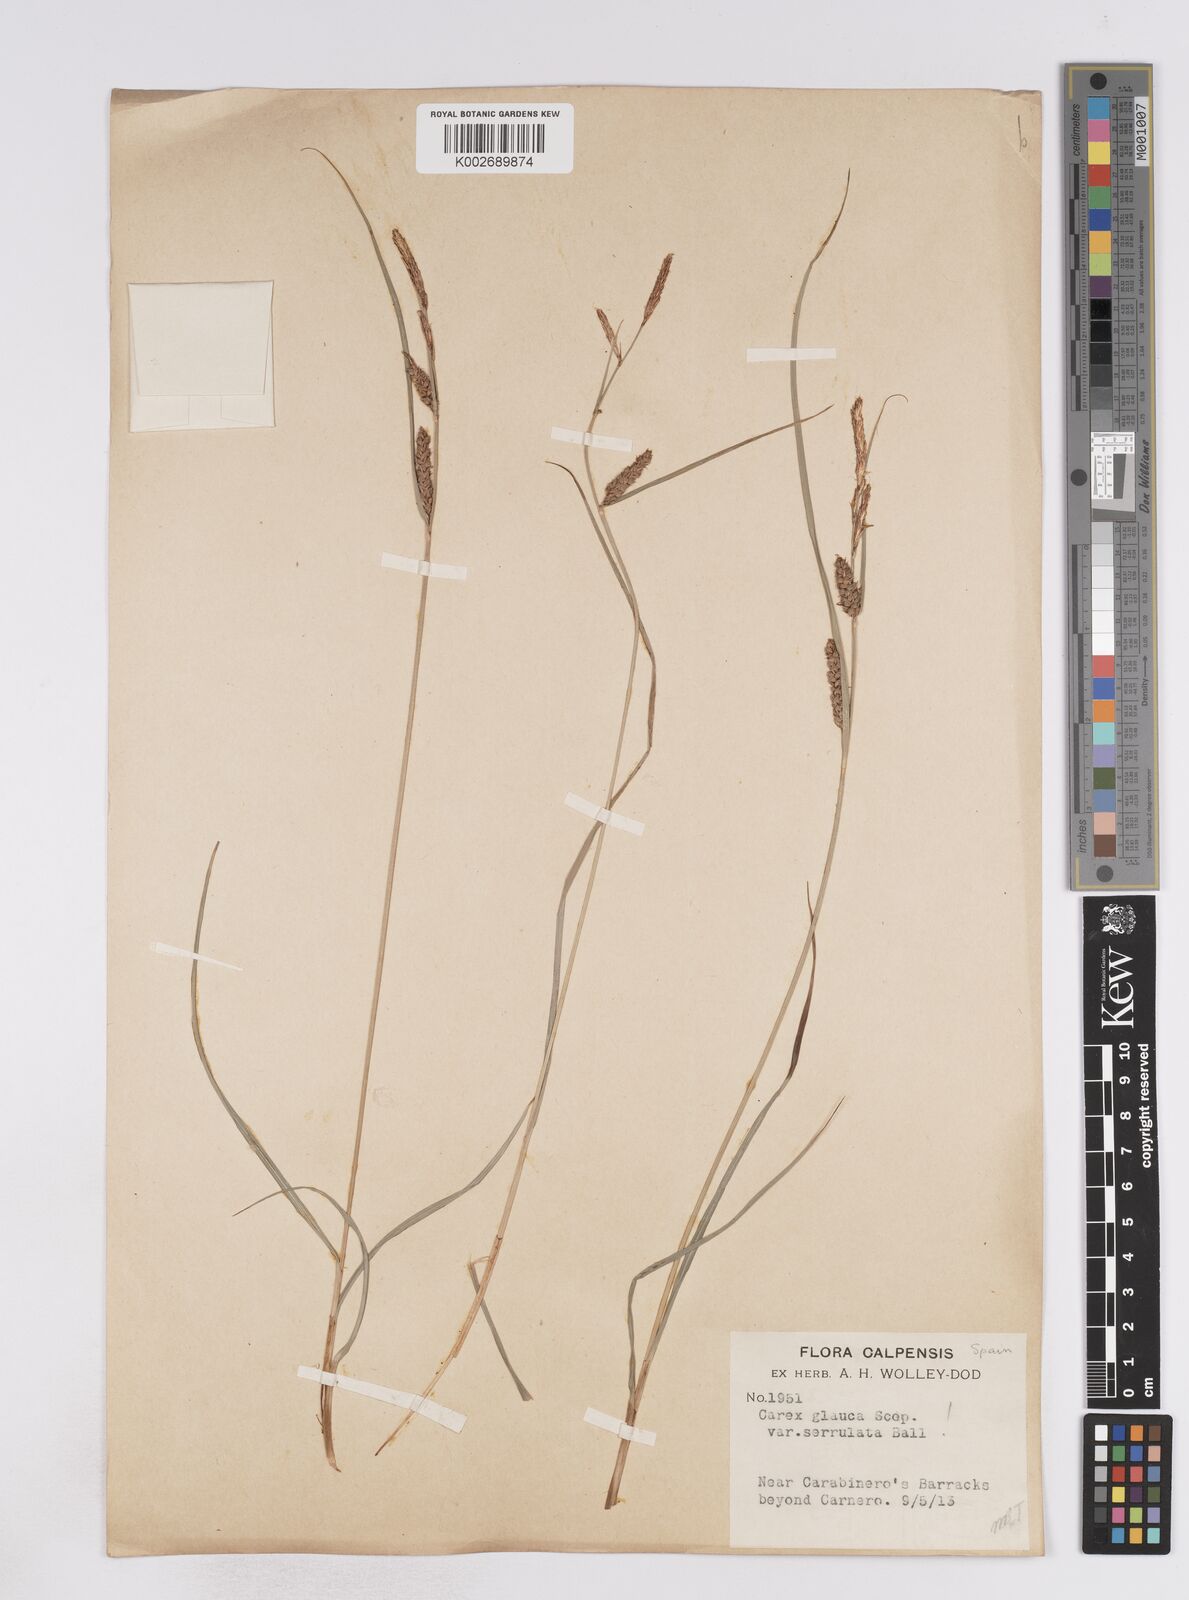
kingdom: Plantae
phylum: Tracheophyta
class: Liliopsida
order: Poales
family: Cyperaceae
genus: Carex
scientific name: Carex flacca
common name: Glaucous sedge
